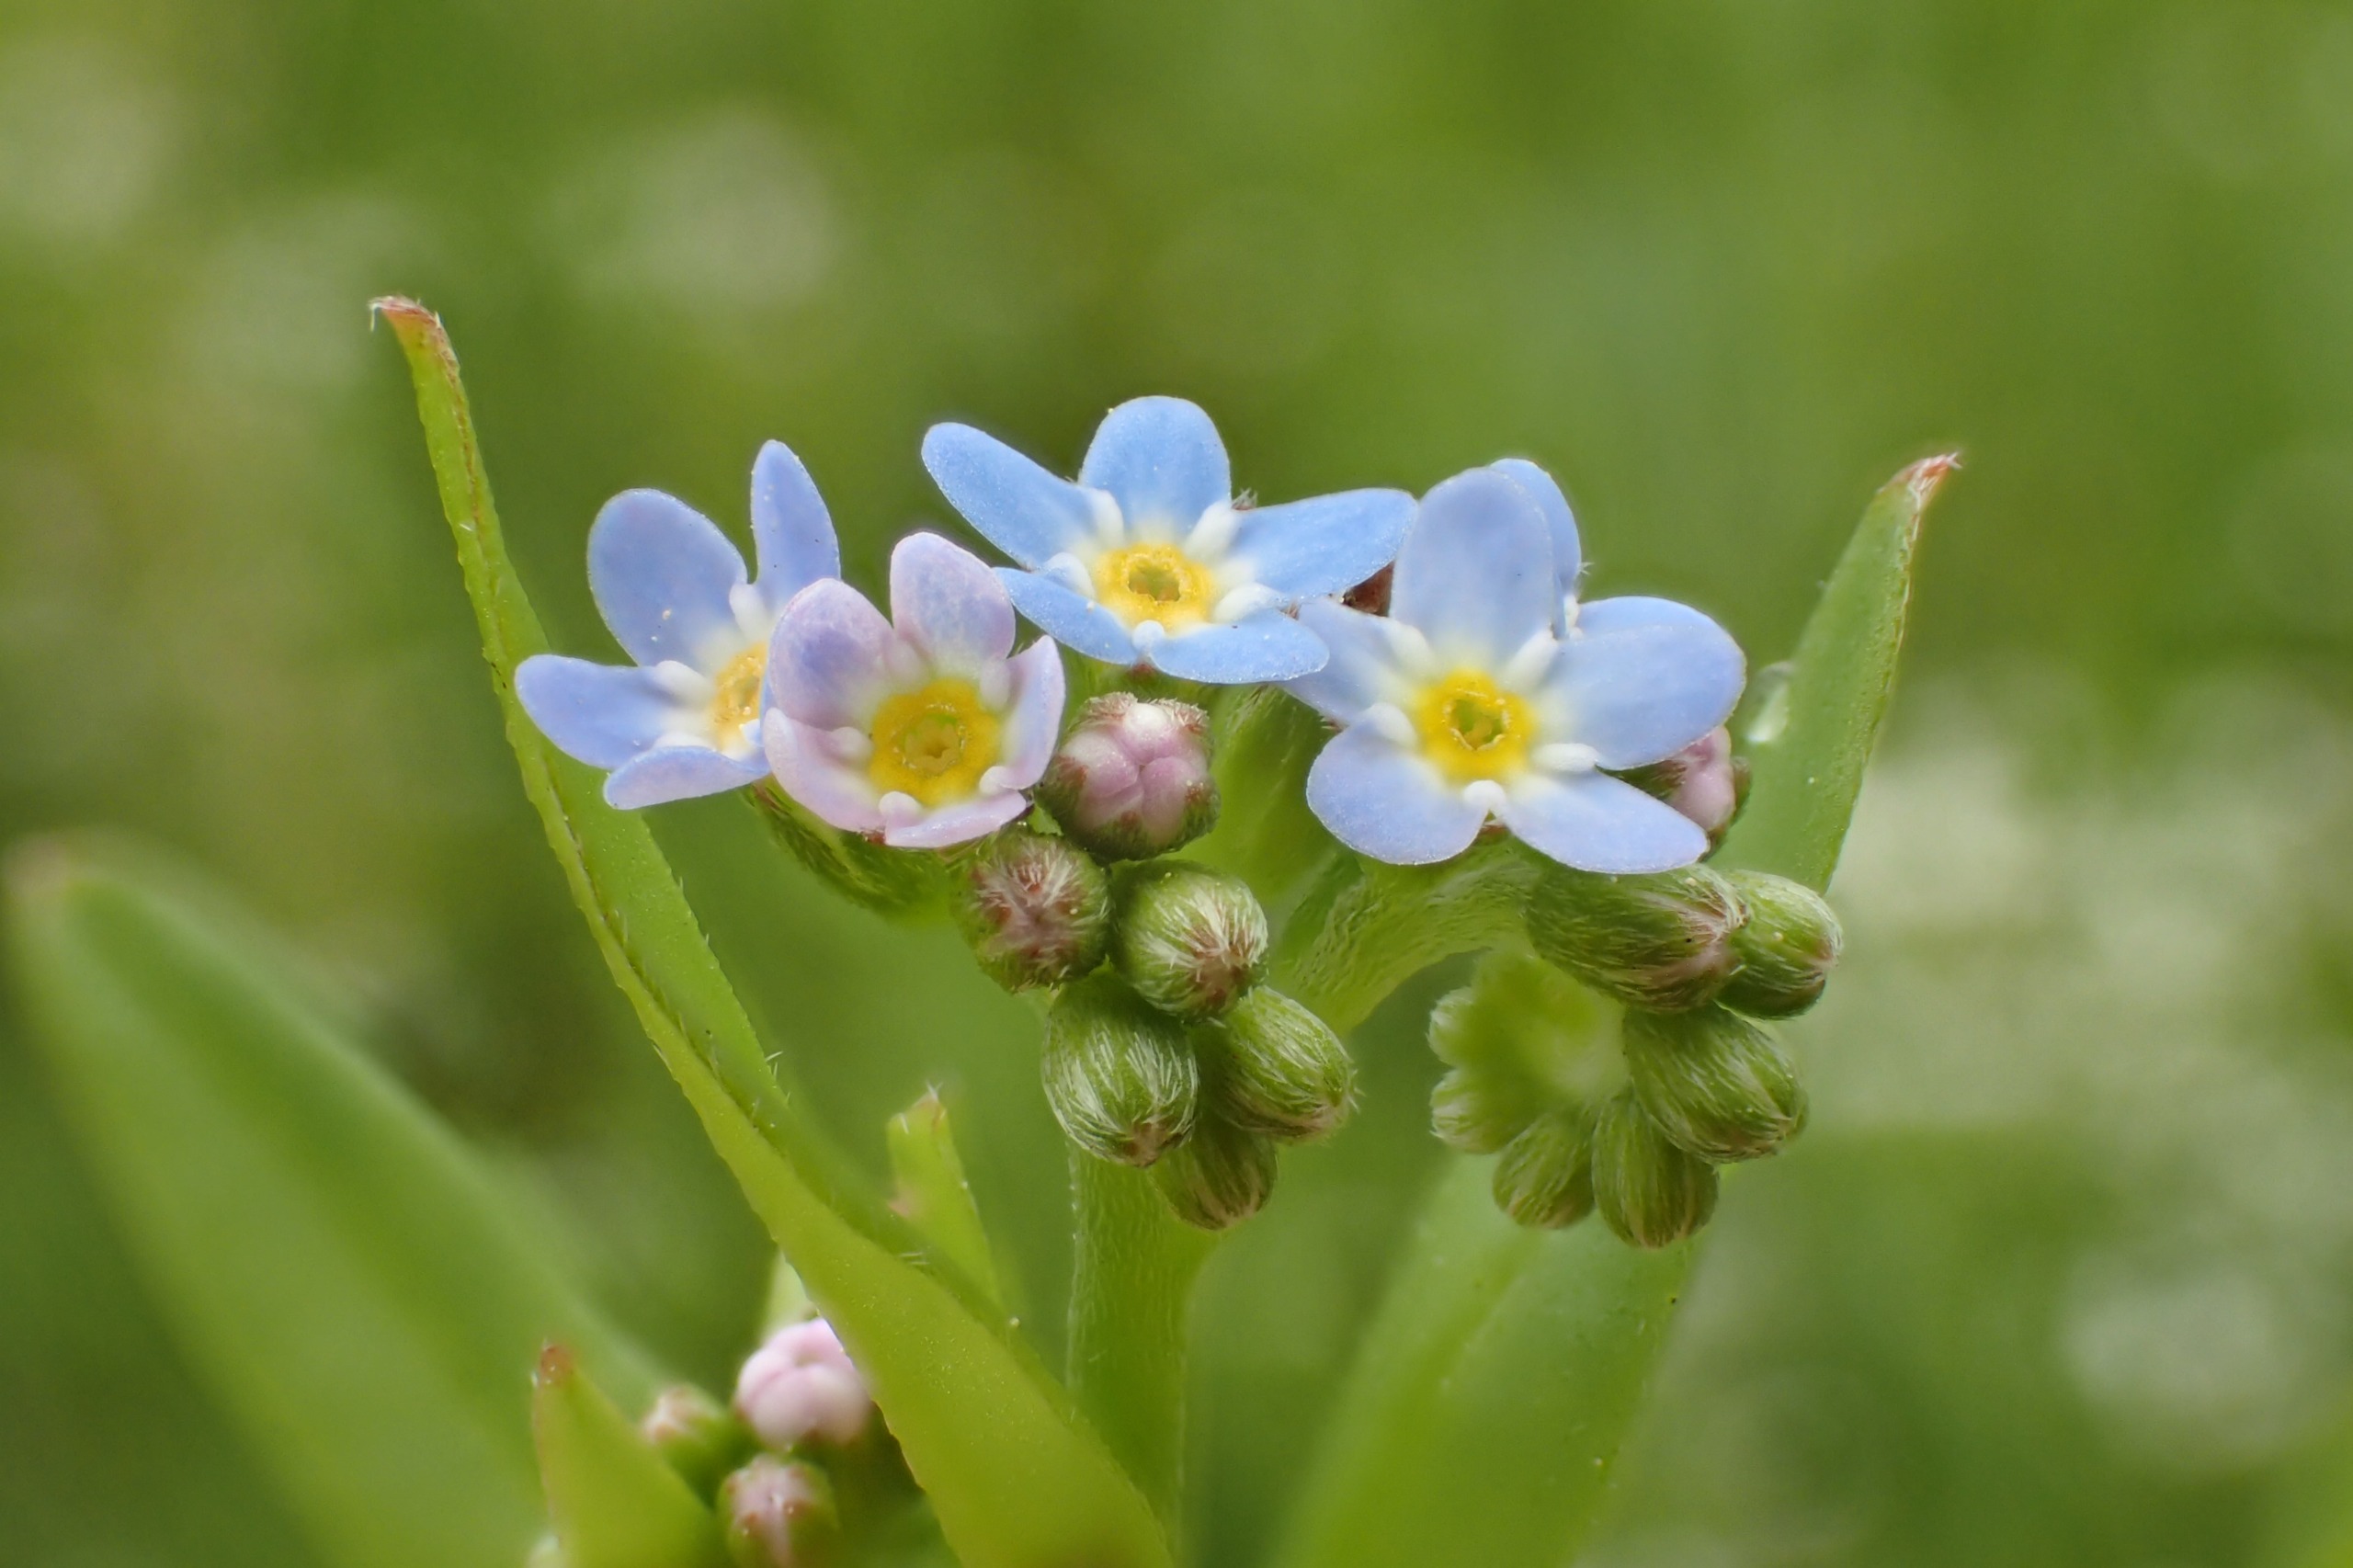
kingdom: Plantae
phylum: Tracheophyta
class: Magnoliopsida
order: Boraginales
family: Boraginaceae
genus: Myosotis
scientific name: Myosotis laxa
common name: Sump-forglemmigej
